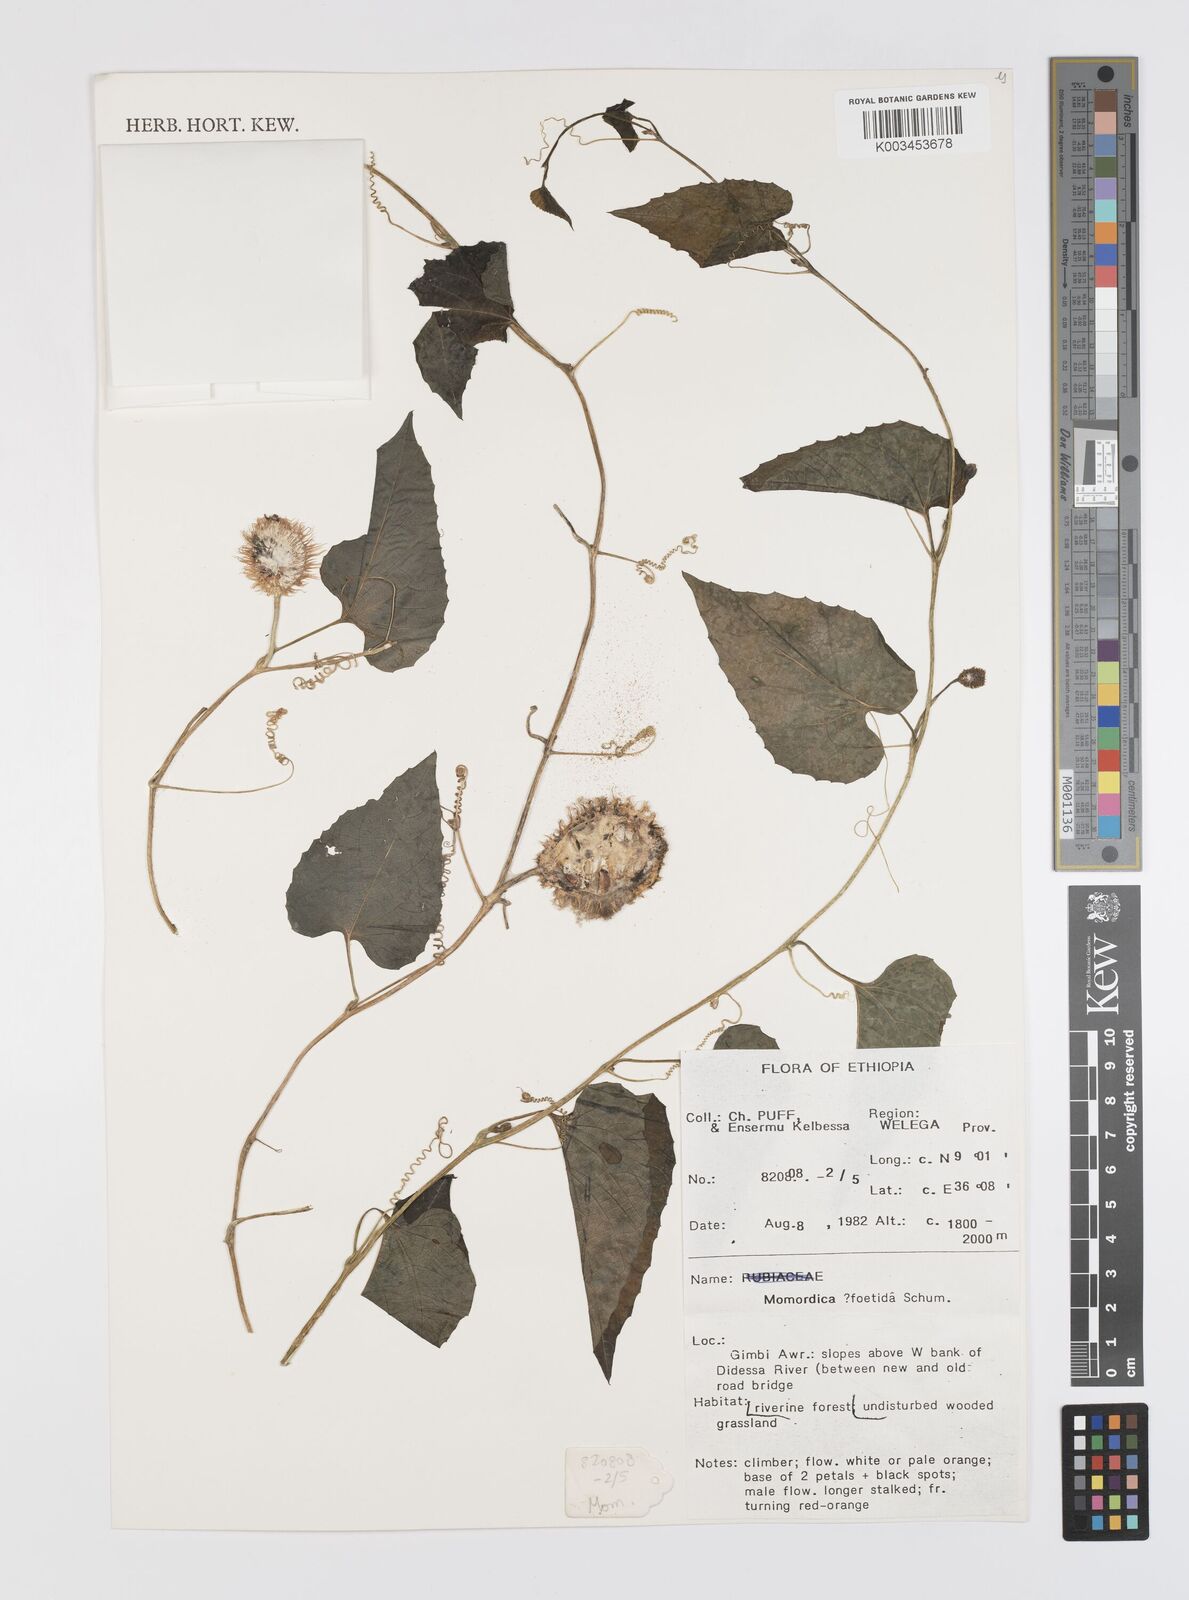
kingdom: Plantae
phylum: Tracheophyta
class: Magnoliopsida
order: Cucurbitales
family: Cucurbitaceae
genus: Momordica
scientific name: Momordica foetida
